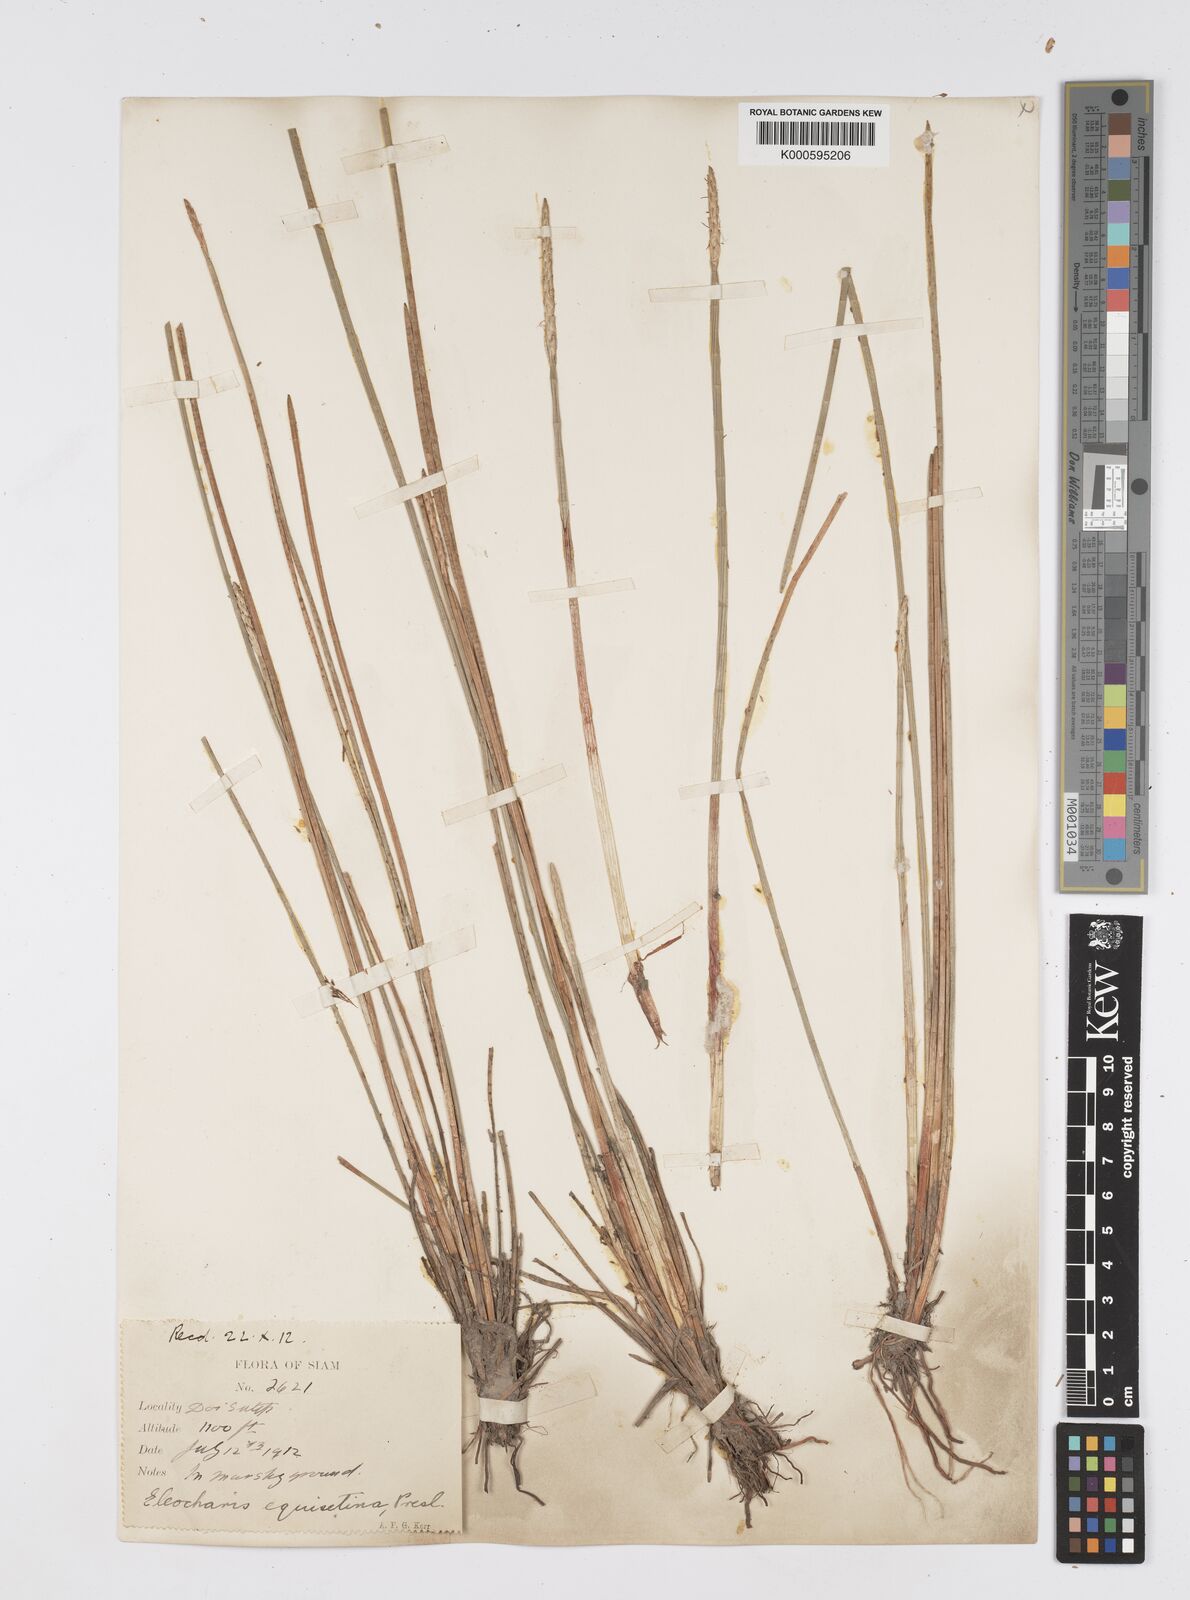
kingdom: Plantae
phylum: Tracheophyta
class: Liliopsida
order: Poales
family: Cyperaceae
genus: Eleocharis
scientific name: Eleocharis dulcis
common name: Chinese water chestnut
